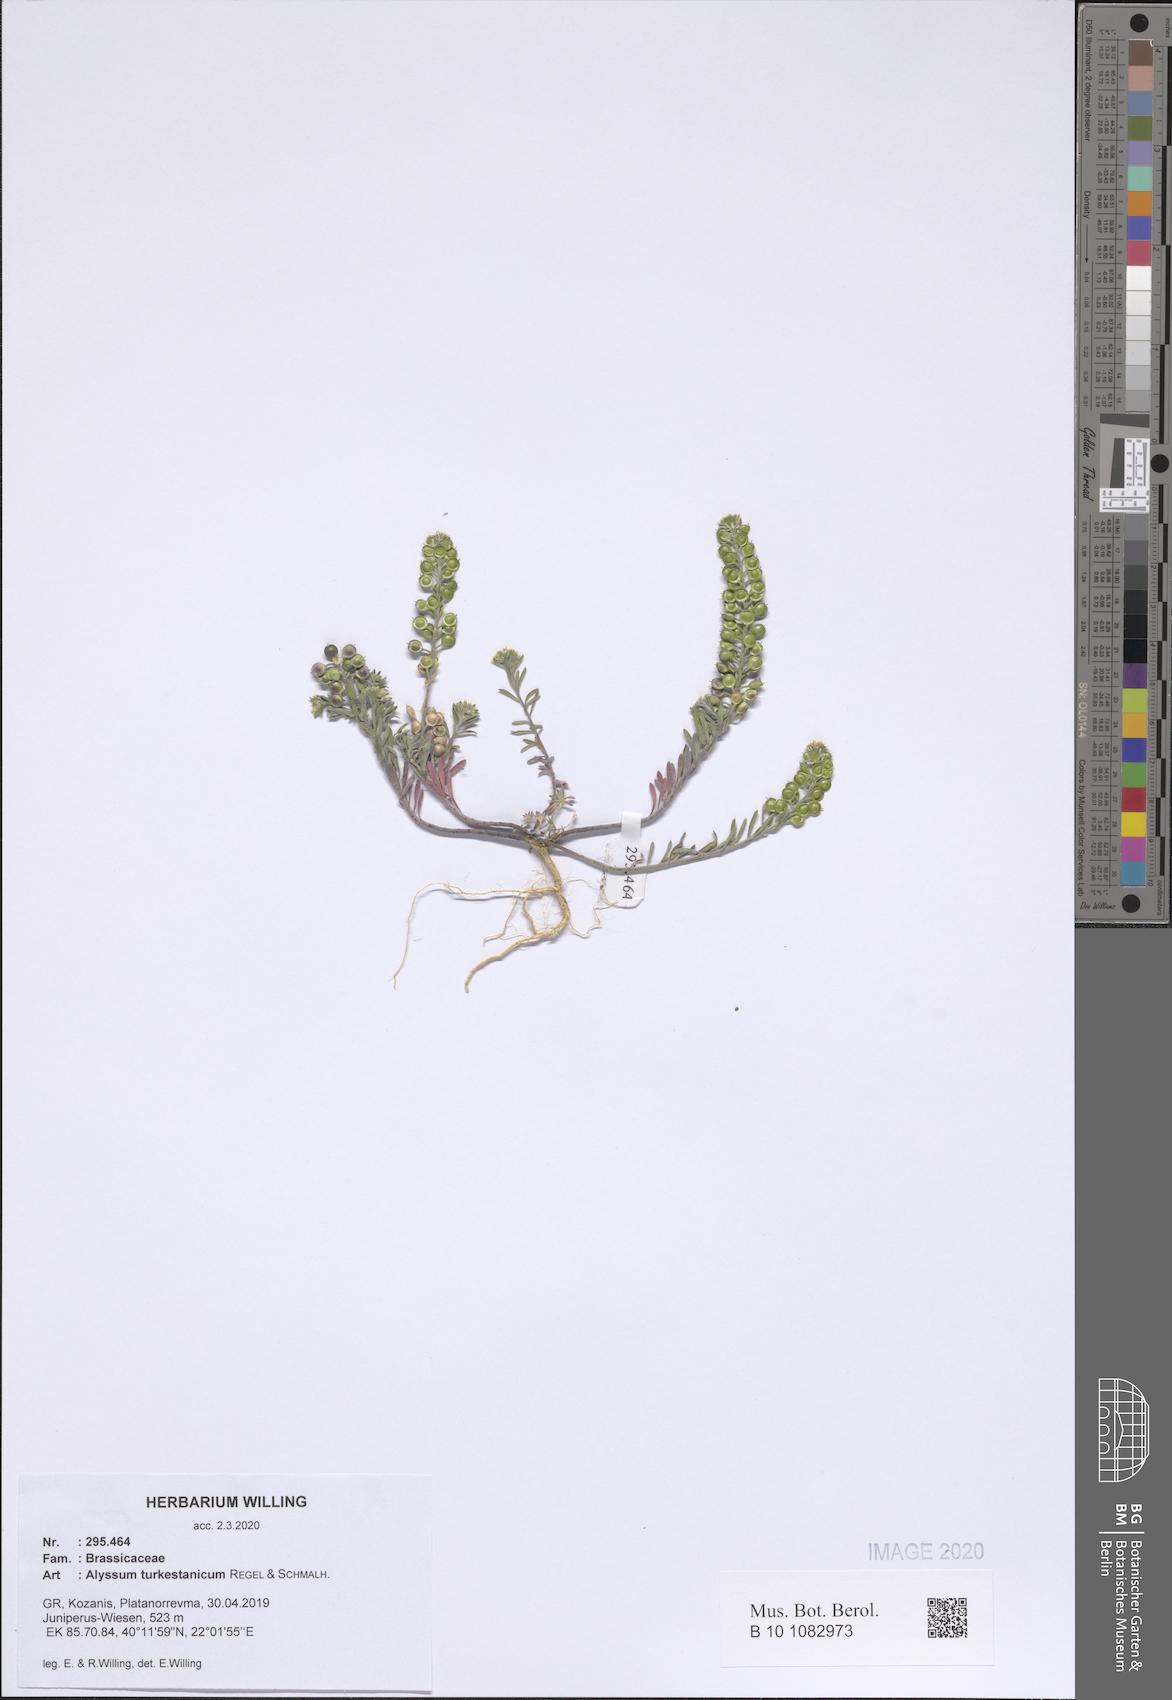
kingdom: Plantae
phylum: Tracheophyta
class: Magnoliopsida
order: Brassicales
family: Brassicaceae
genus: Alyssum
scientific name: Alyssum turkestanicum
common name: Desert alyssum
